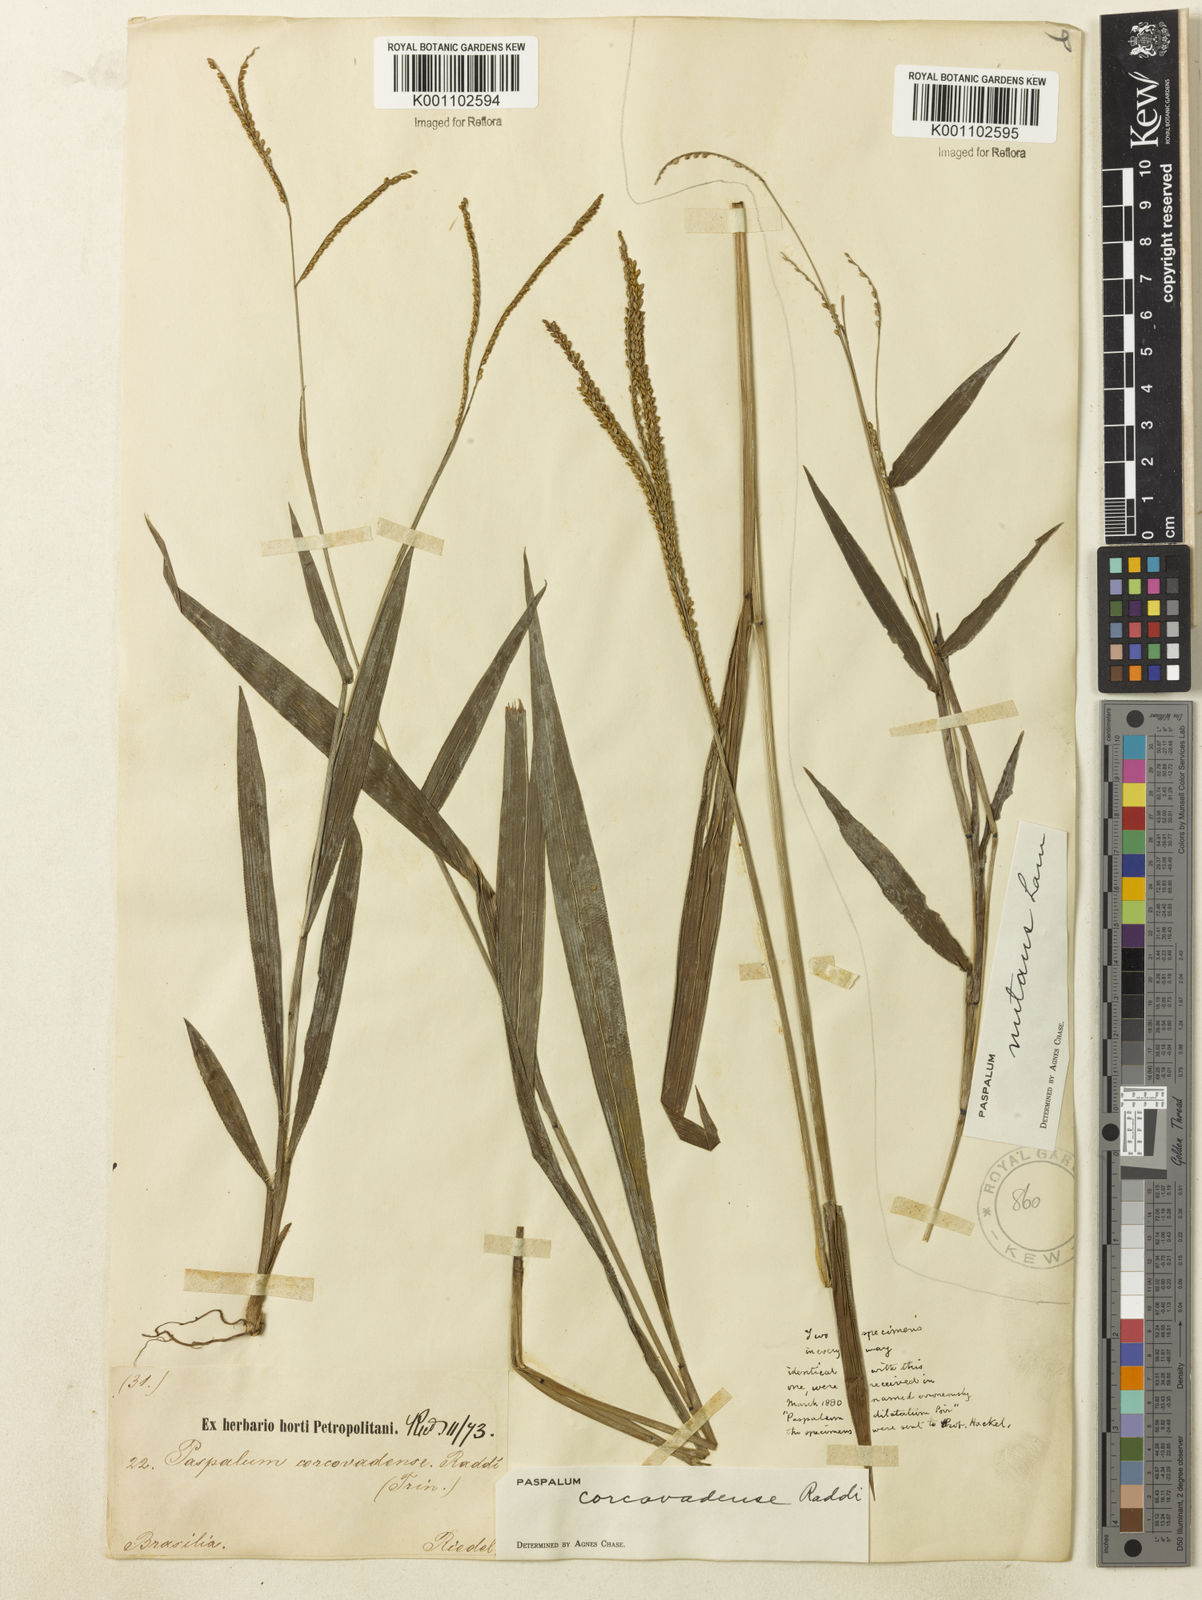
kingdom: Plantae
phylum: Tracheophyta
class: Liliopsida
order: Poales
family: Poaceae
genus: Paspalum
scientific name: Paspalum corcovadense
